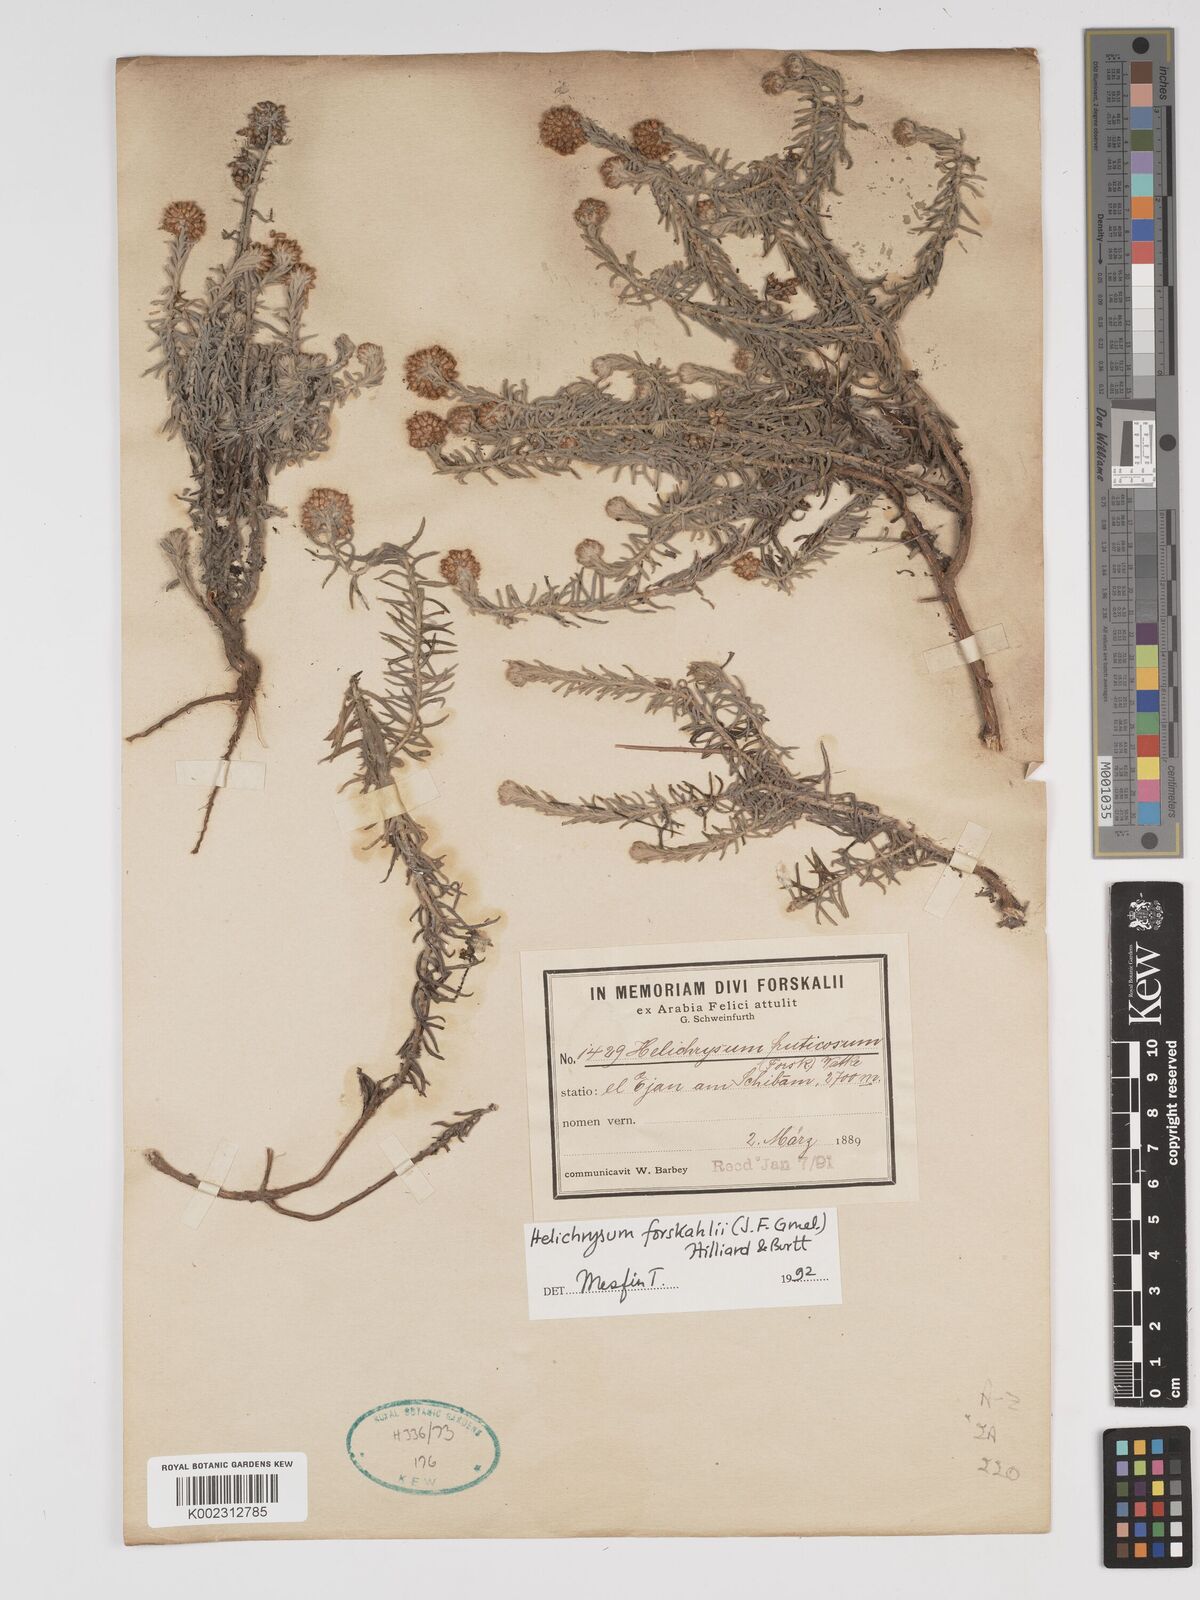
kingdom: Plantae
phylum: Tracheophyta
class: Magnoliopsida
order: Asterales
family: Asteraceae
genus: Helichrysum
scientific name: Helichrysum forskahlii
